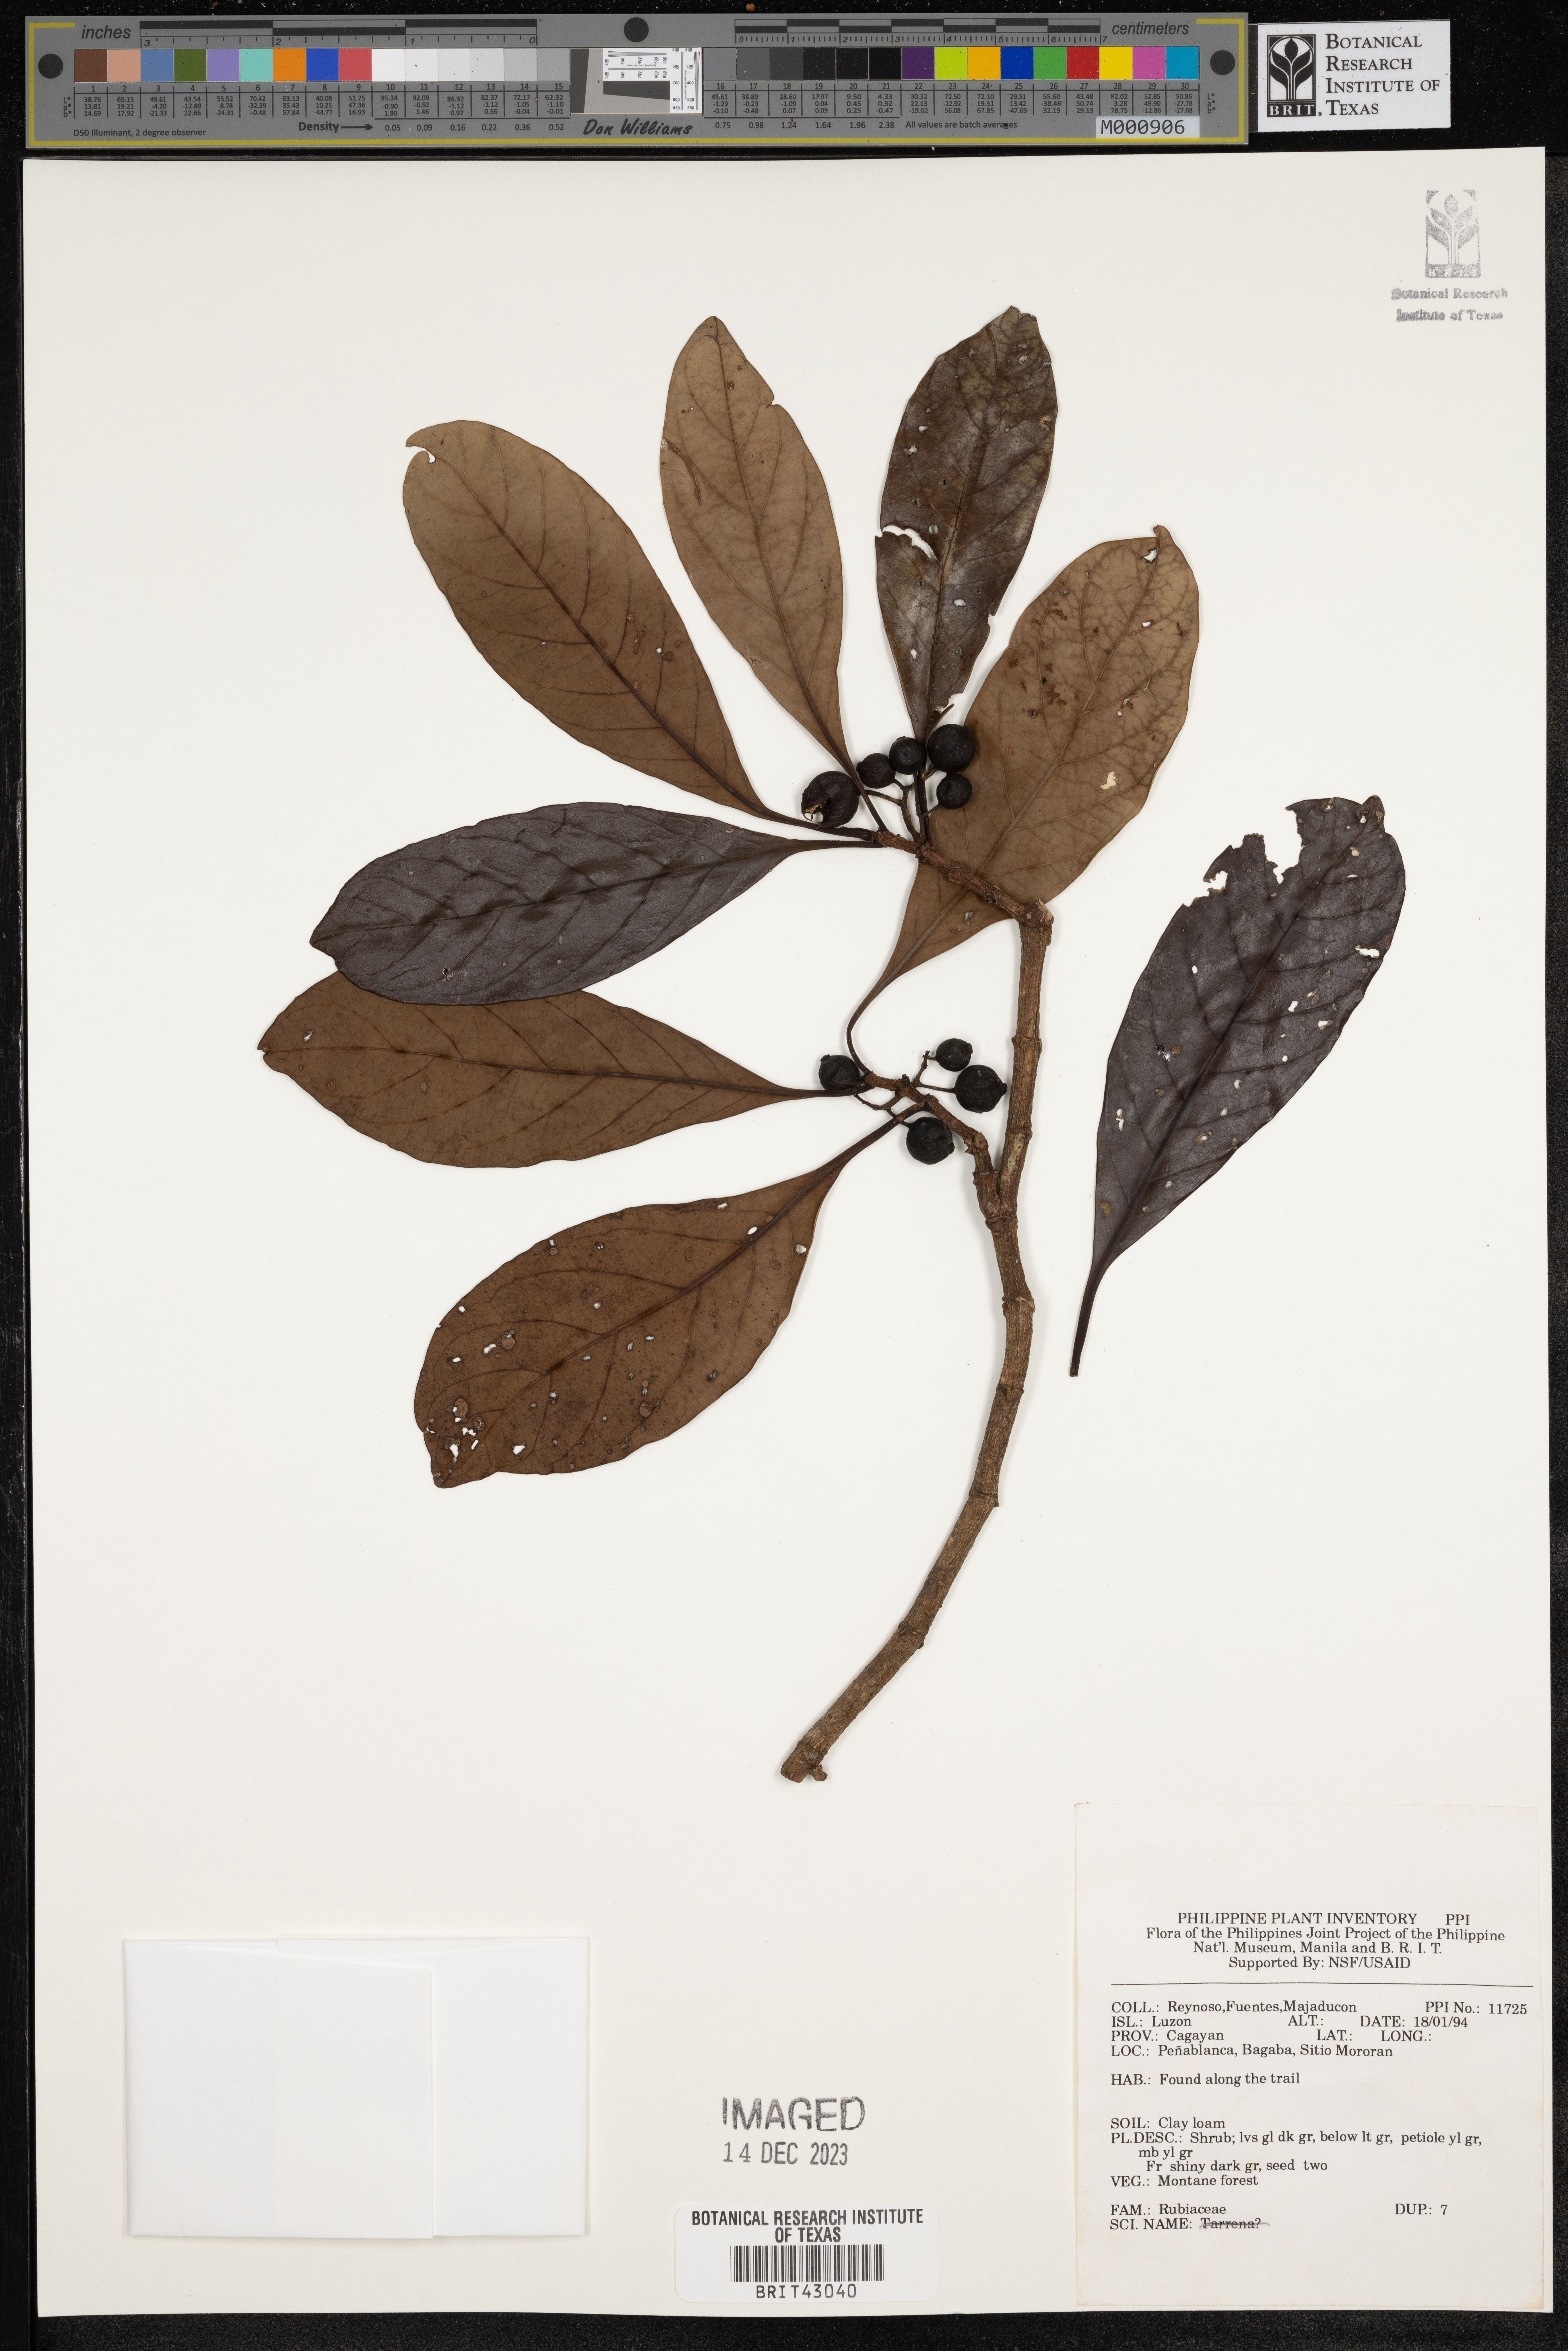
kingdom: Plantae
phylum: Tracheophyta
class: Magnoliopsida
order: Gentianales
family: Rubiaceae
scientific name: Rubiaceae
